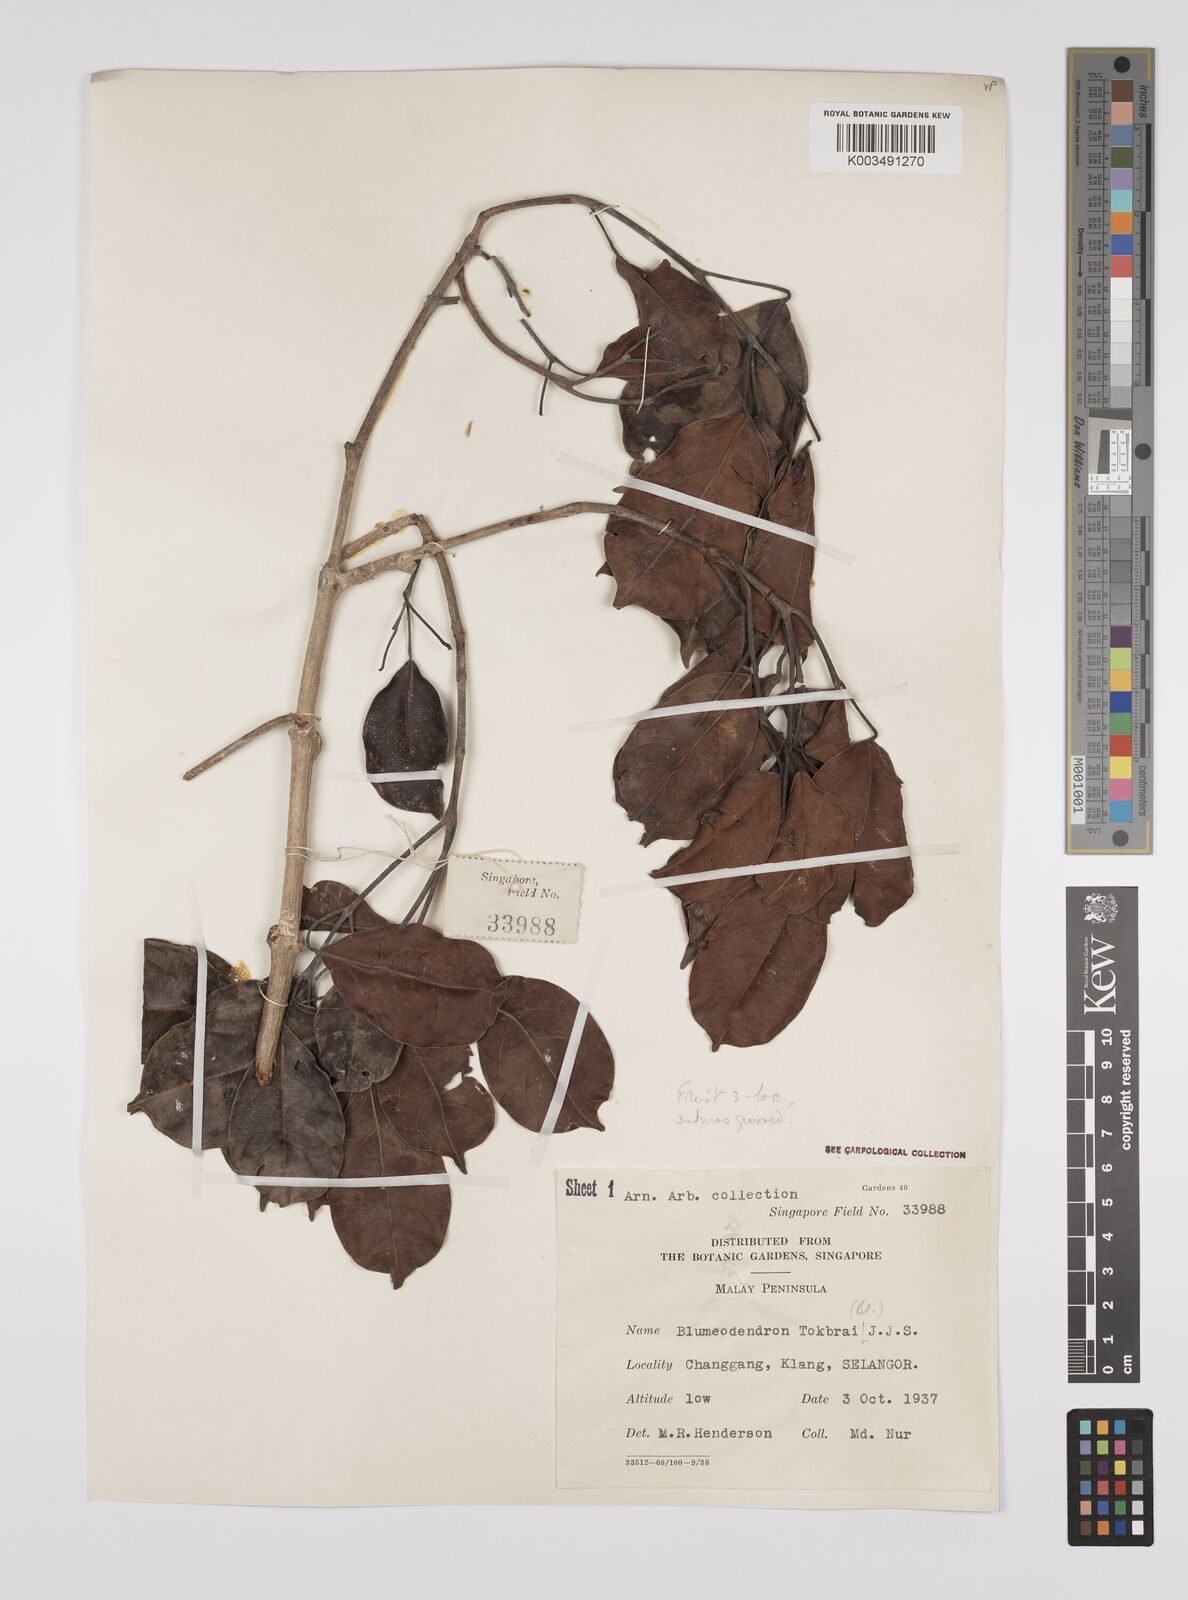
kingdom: Plantae
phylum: Tracheophyta
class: Magnoliopsida
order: Malpighiales
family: Euphorbiaceae
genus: Blumeodendron
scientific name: Blumeodendron tokbrai
